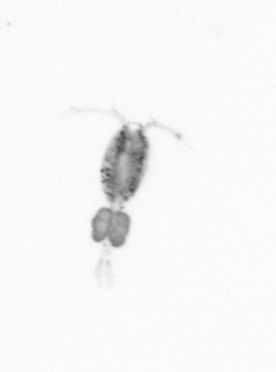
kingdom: Animalia
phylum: Arthropoda
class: Copepoda
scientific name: Copepoda
